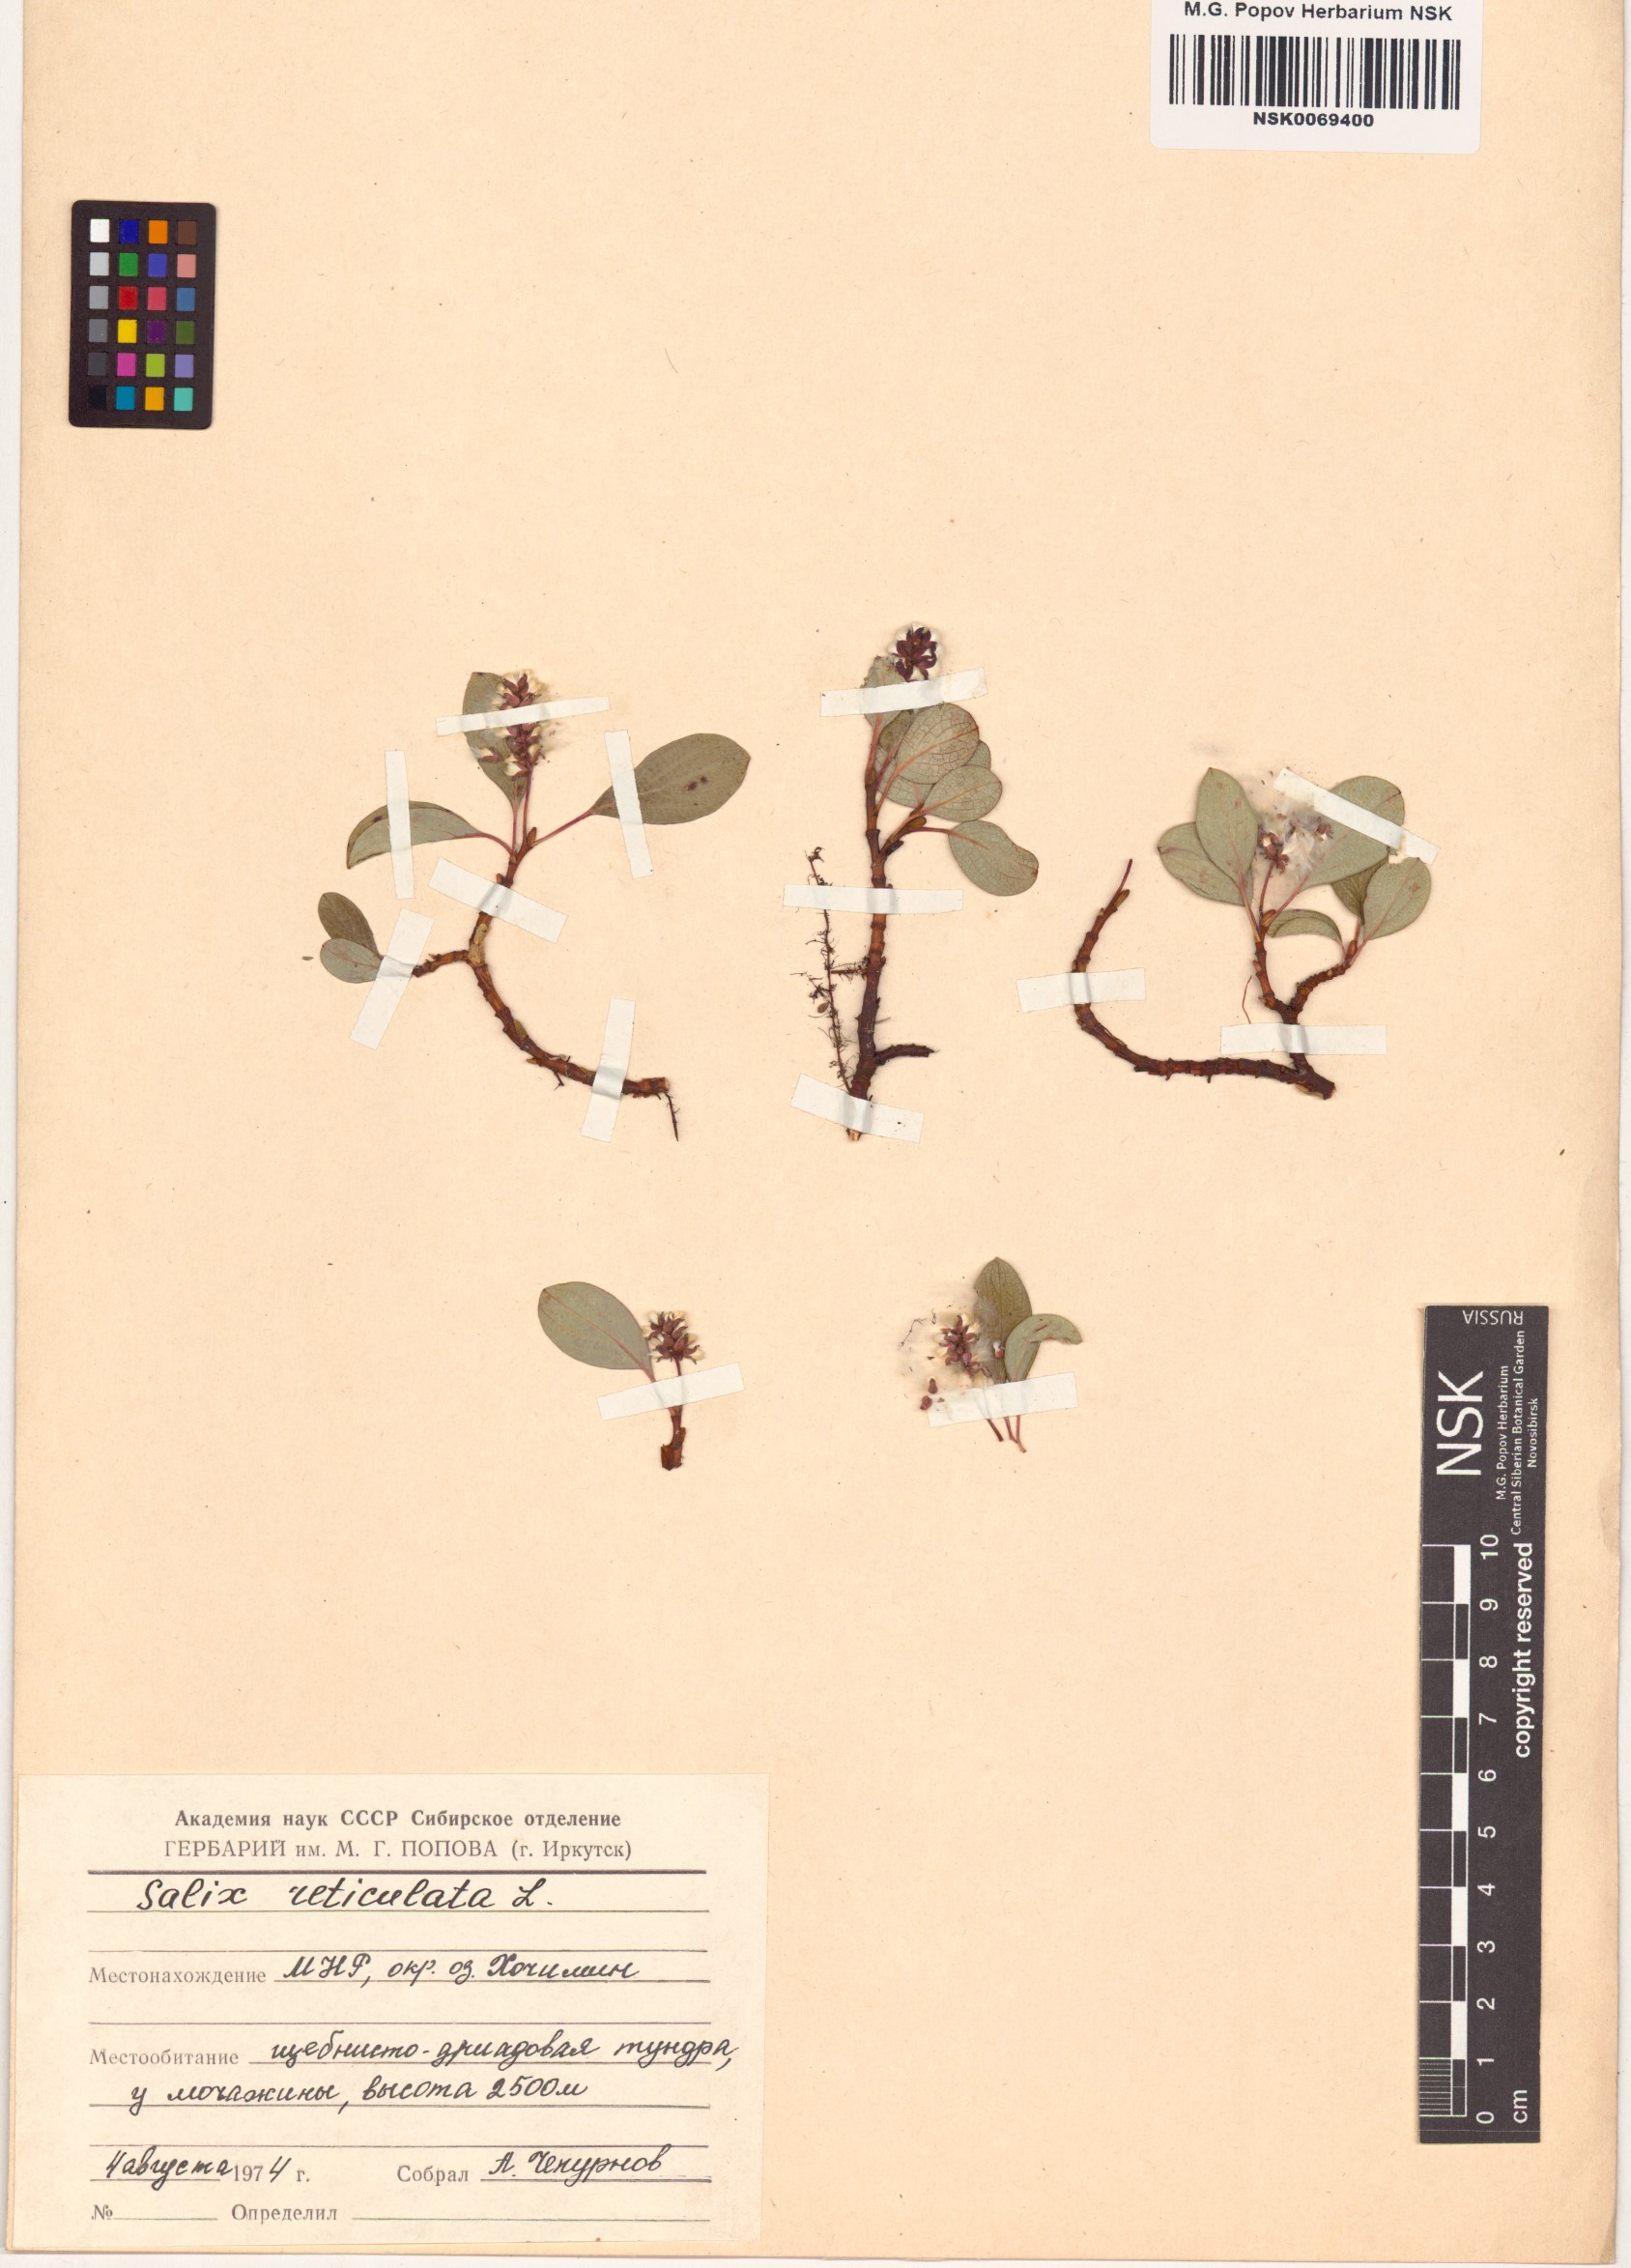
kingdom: Plantae
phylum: Tracheophyta
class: Magnoliopsida
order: Malpighiales
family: Salicaceae
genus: Salix
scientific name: Salix reticulata
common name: Net-leaved willow
